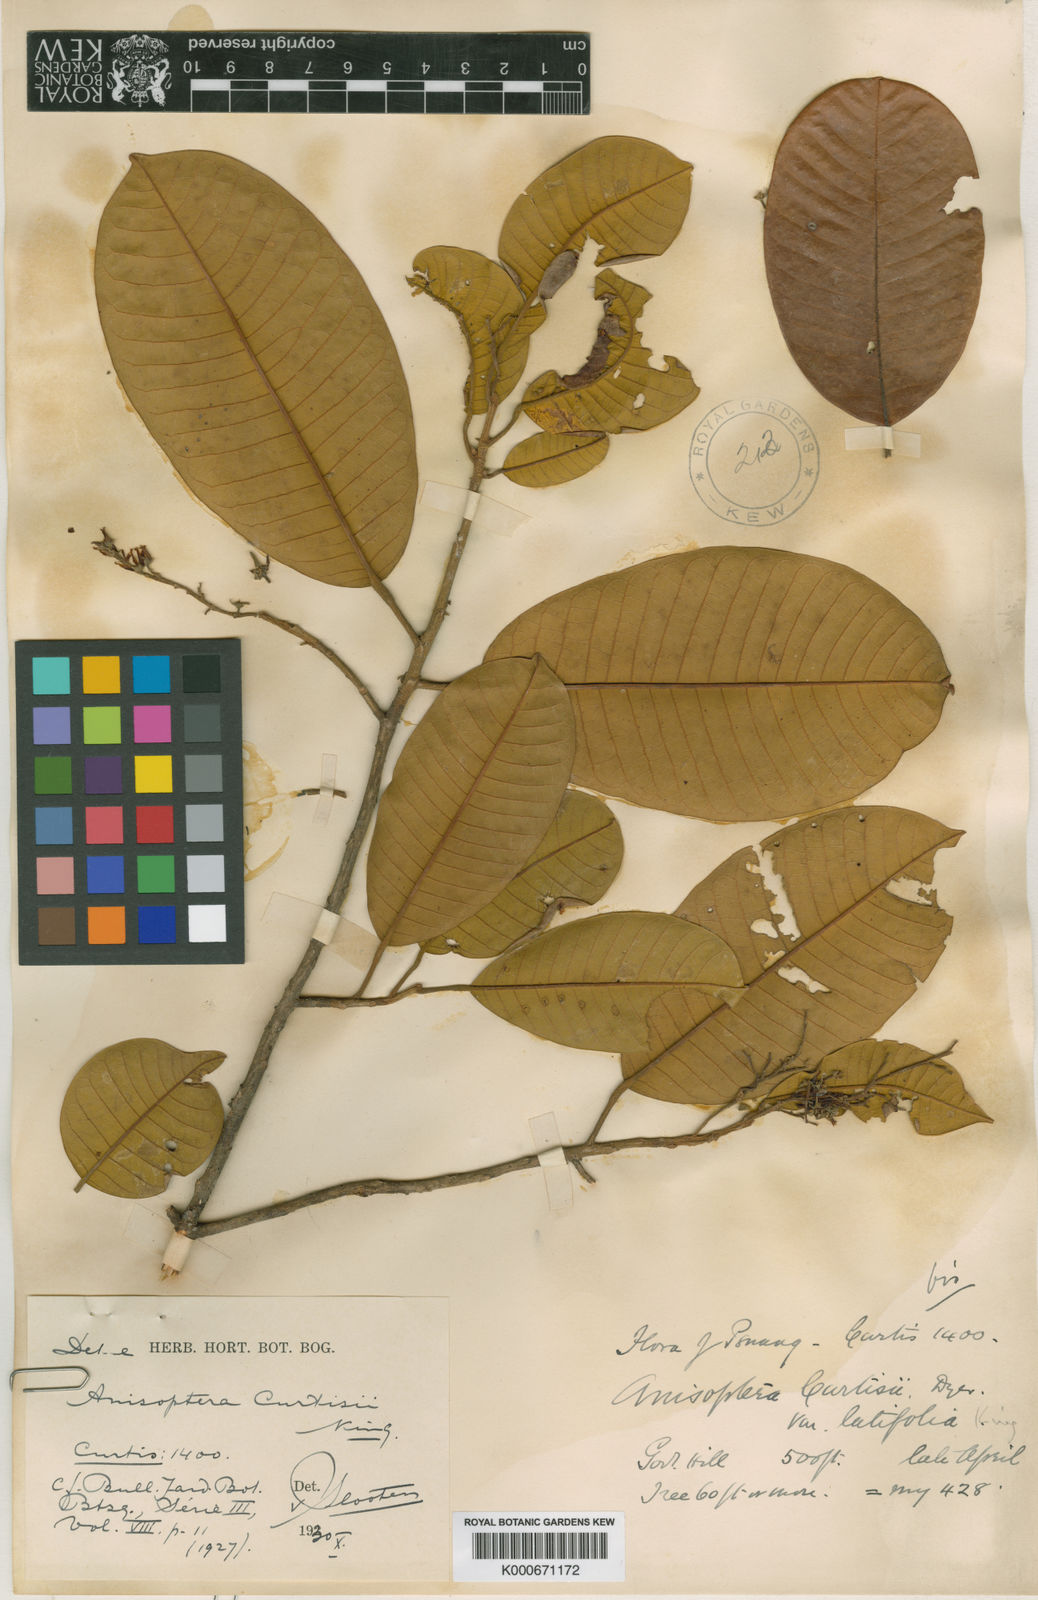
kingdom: Plantae
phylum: Tracheophyta
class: Magnoliopsida
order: Malvales
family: Dipterocarpaceae
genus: Anisoptera
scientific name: Anisoptera curtisii
